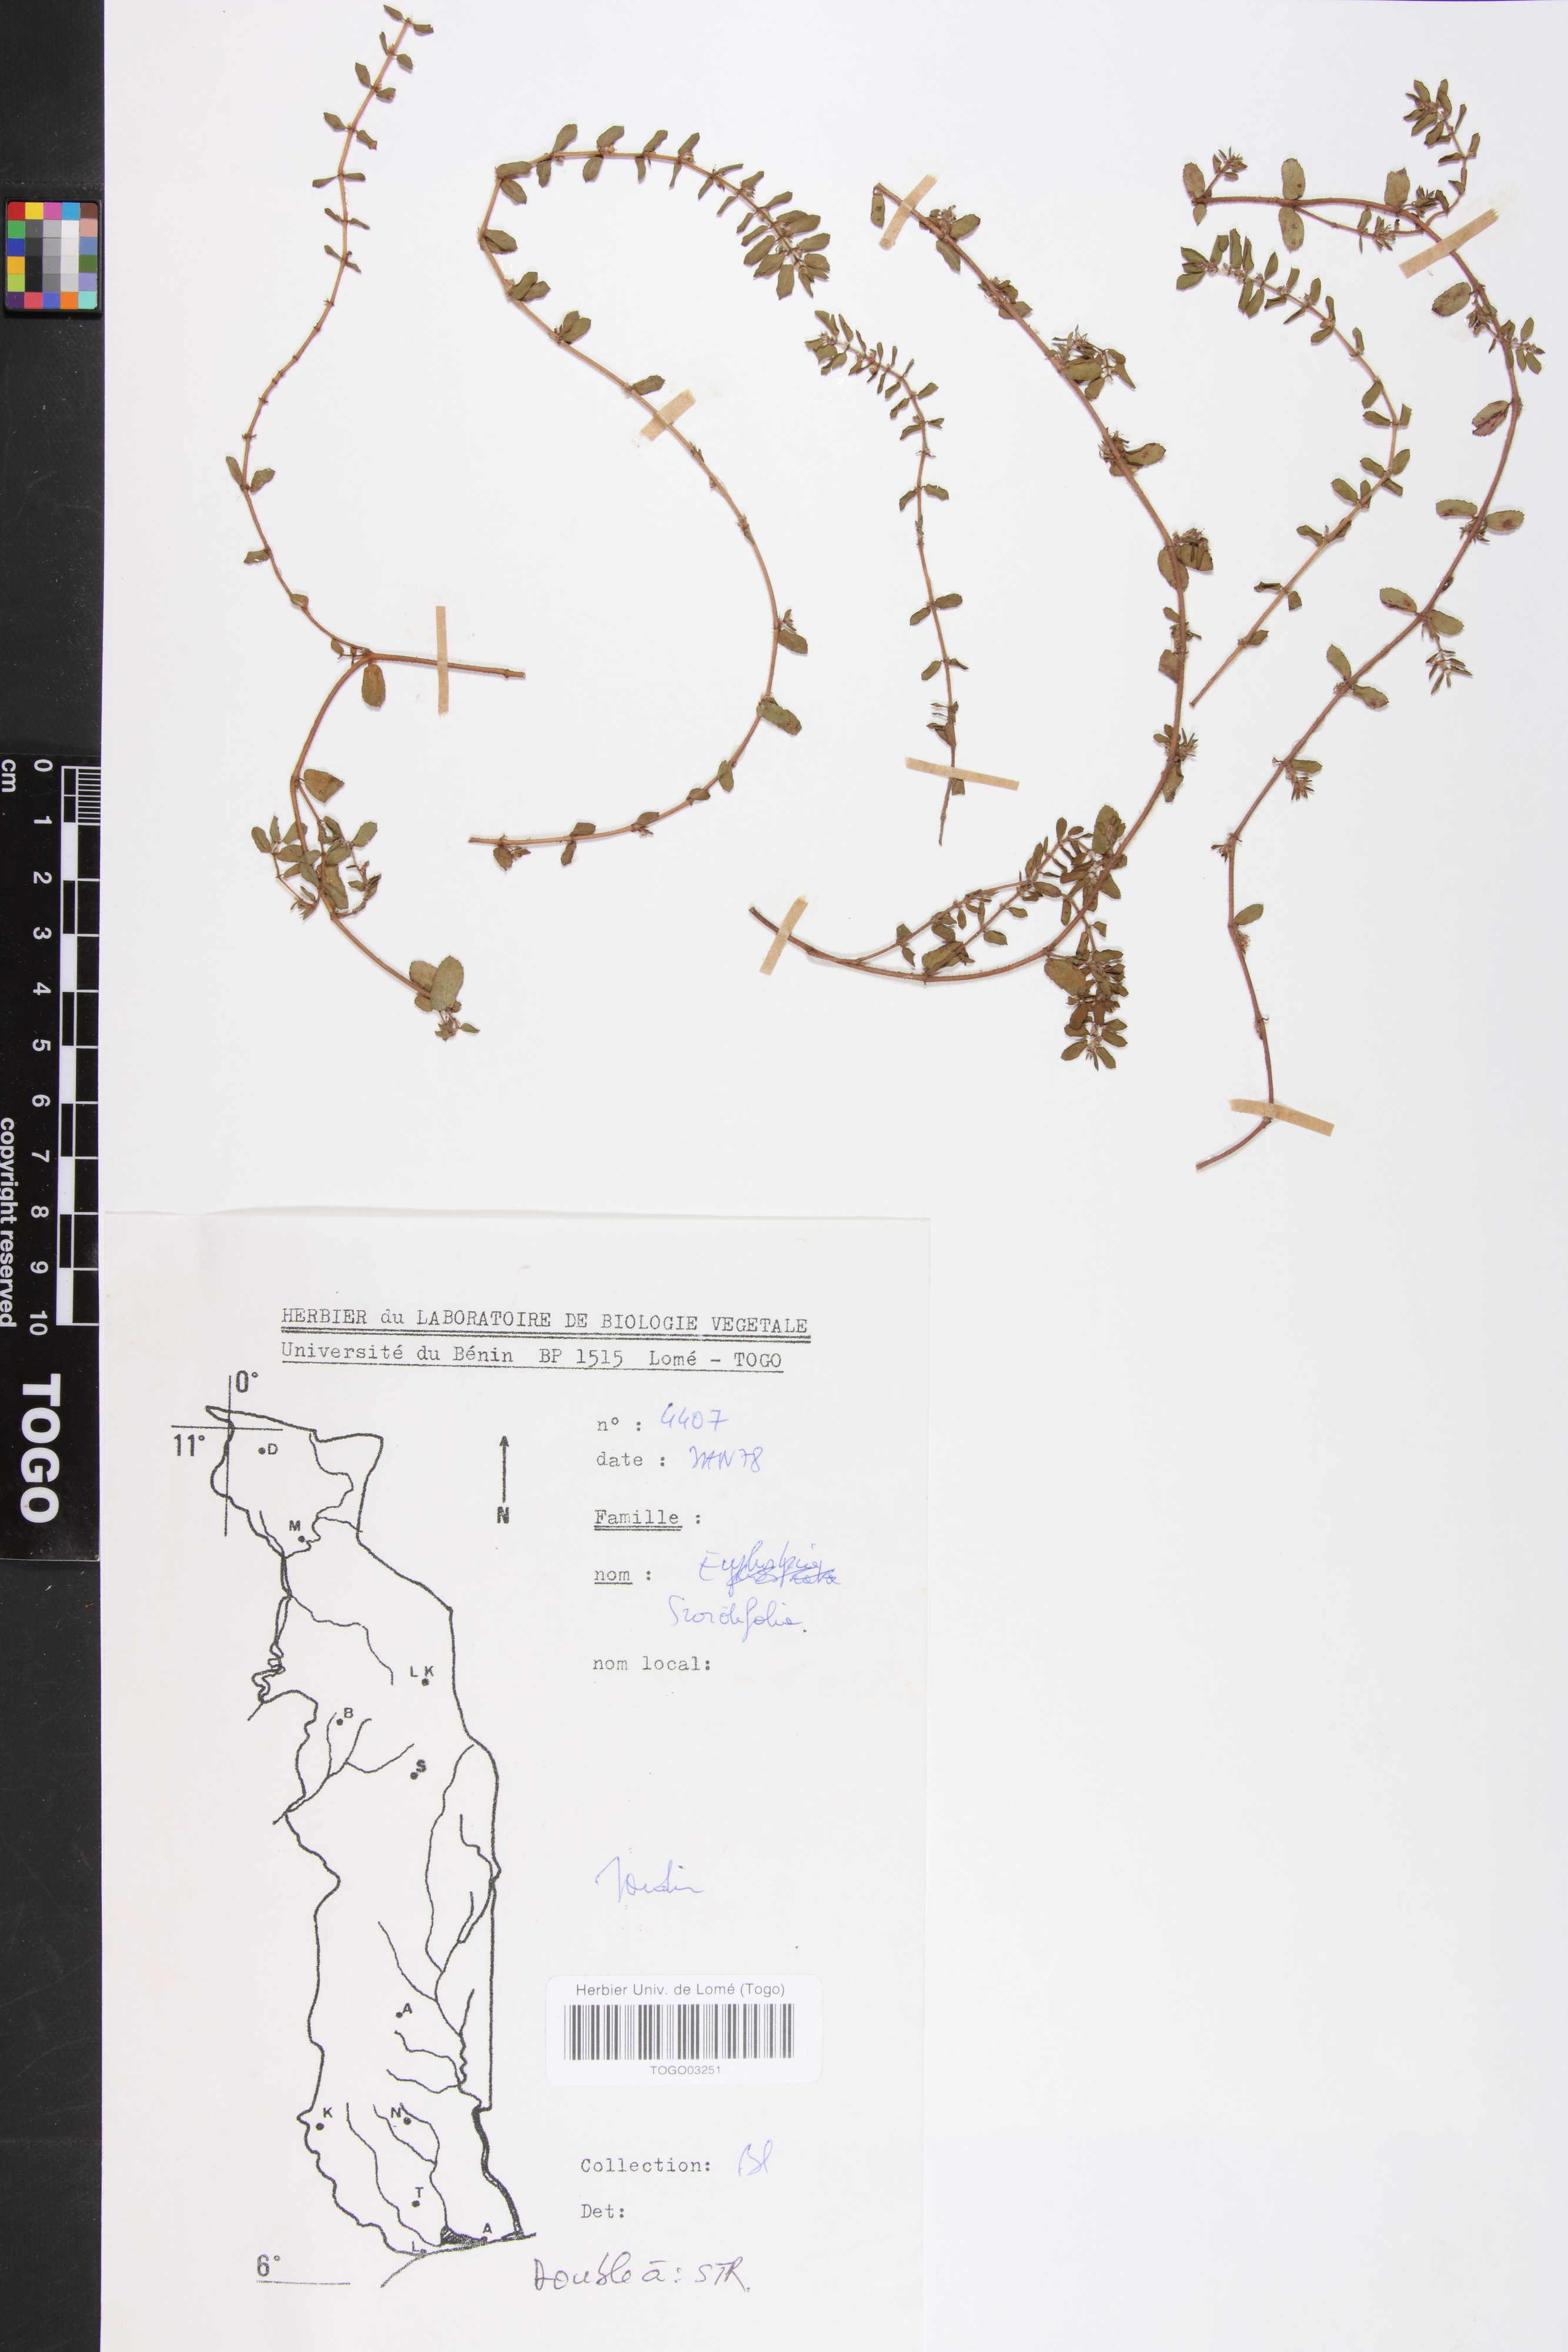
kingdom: Plantae
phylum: Tracheophyta
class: Magnoliopsida
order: Malpighiales
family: Euphorbiaceae
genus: Euphorbia
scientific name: Euphorbia scordiifolia
